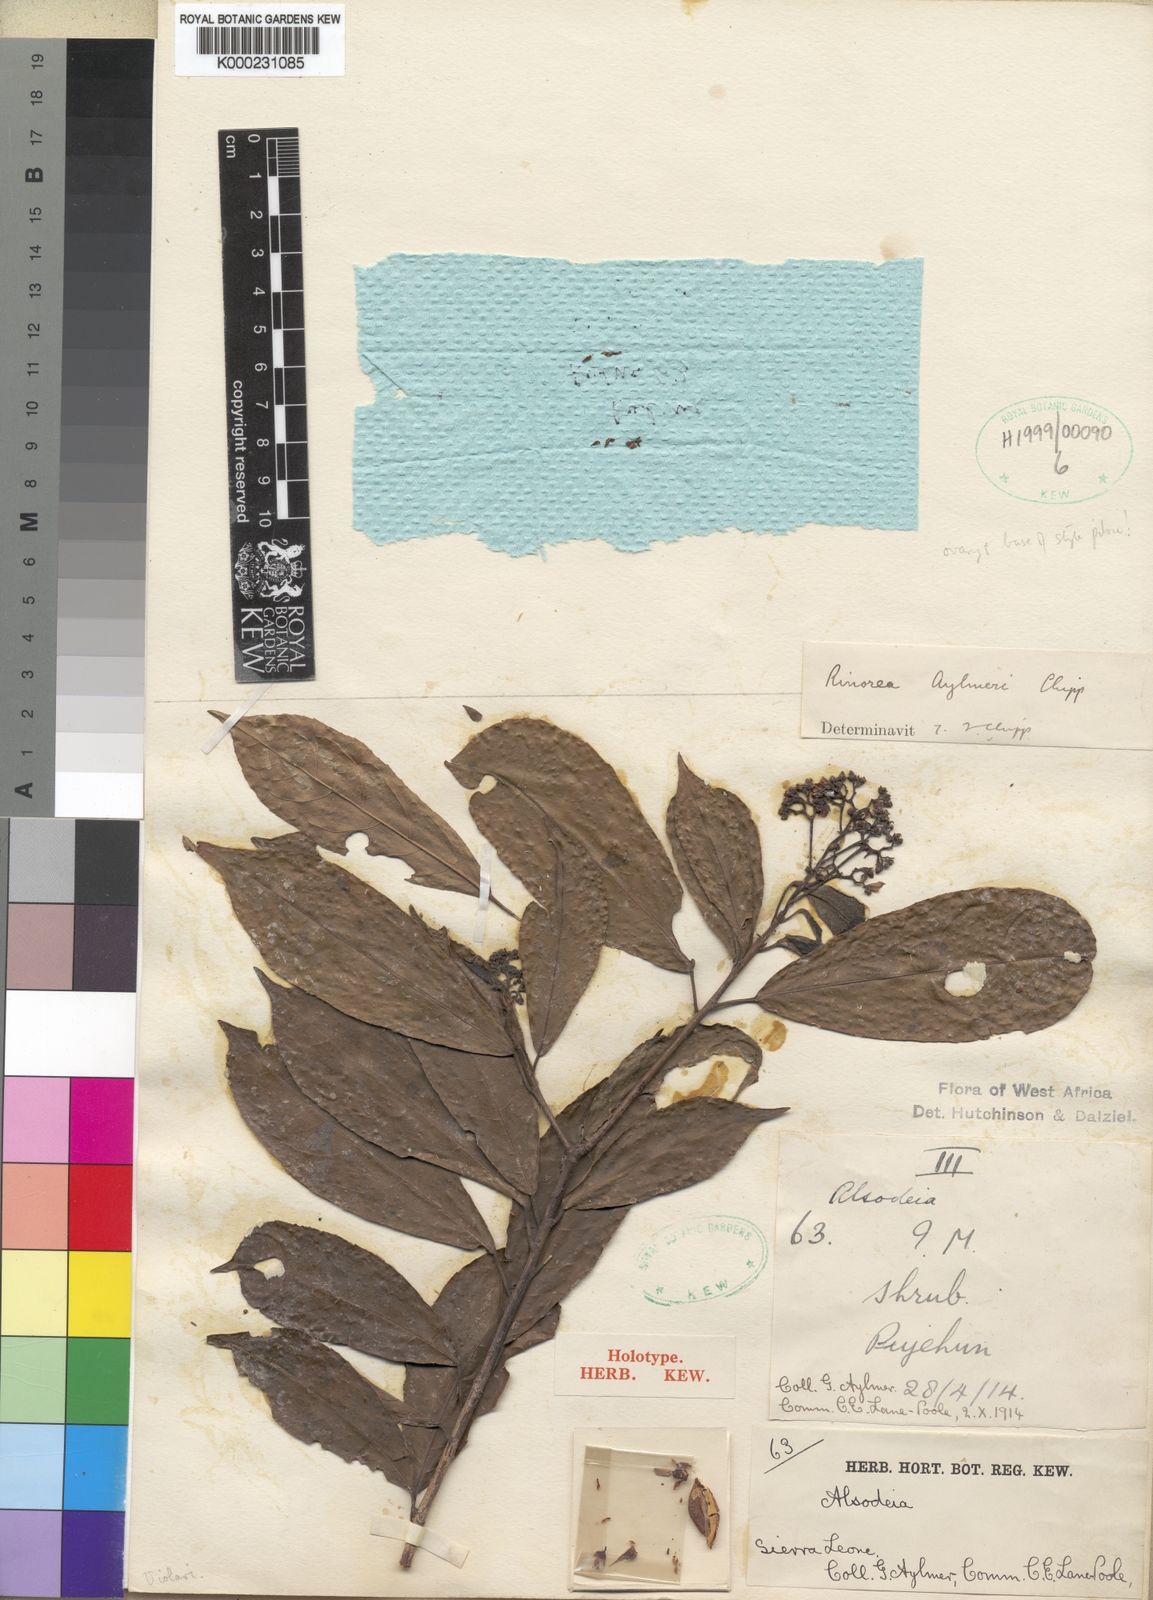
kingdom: Plantae
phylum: Tracheophyta
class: Magnoliopsida
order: Malpighiales
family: Violaceae
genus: Rinorea
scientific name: Rinorea aylmeri
